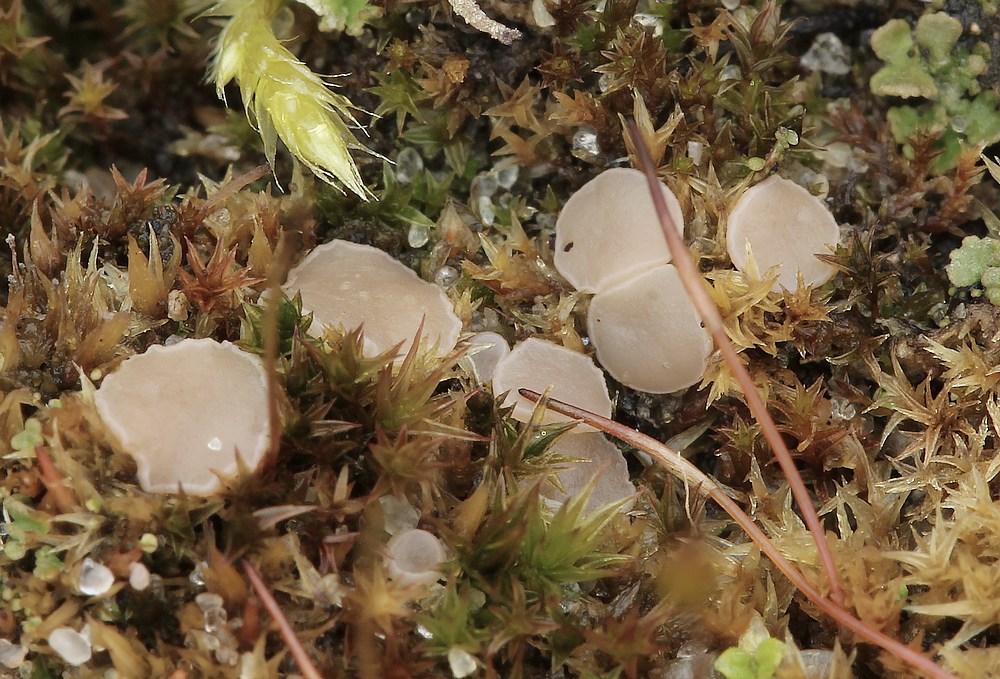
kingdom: Fungi
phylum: Ascomycota
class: Leotiomycetes
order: Helotiales
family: Helotiaceae
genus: Bryoscyphus
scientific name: Bryoscyphus dicrani
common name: bladmos-stilkskive
